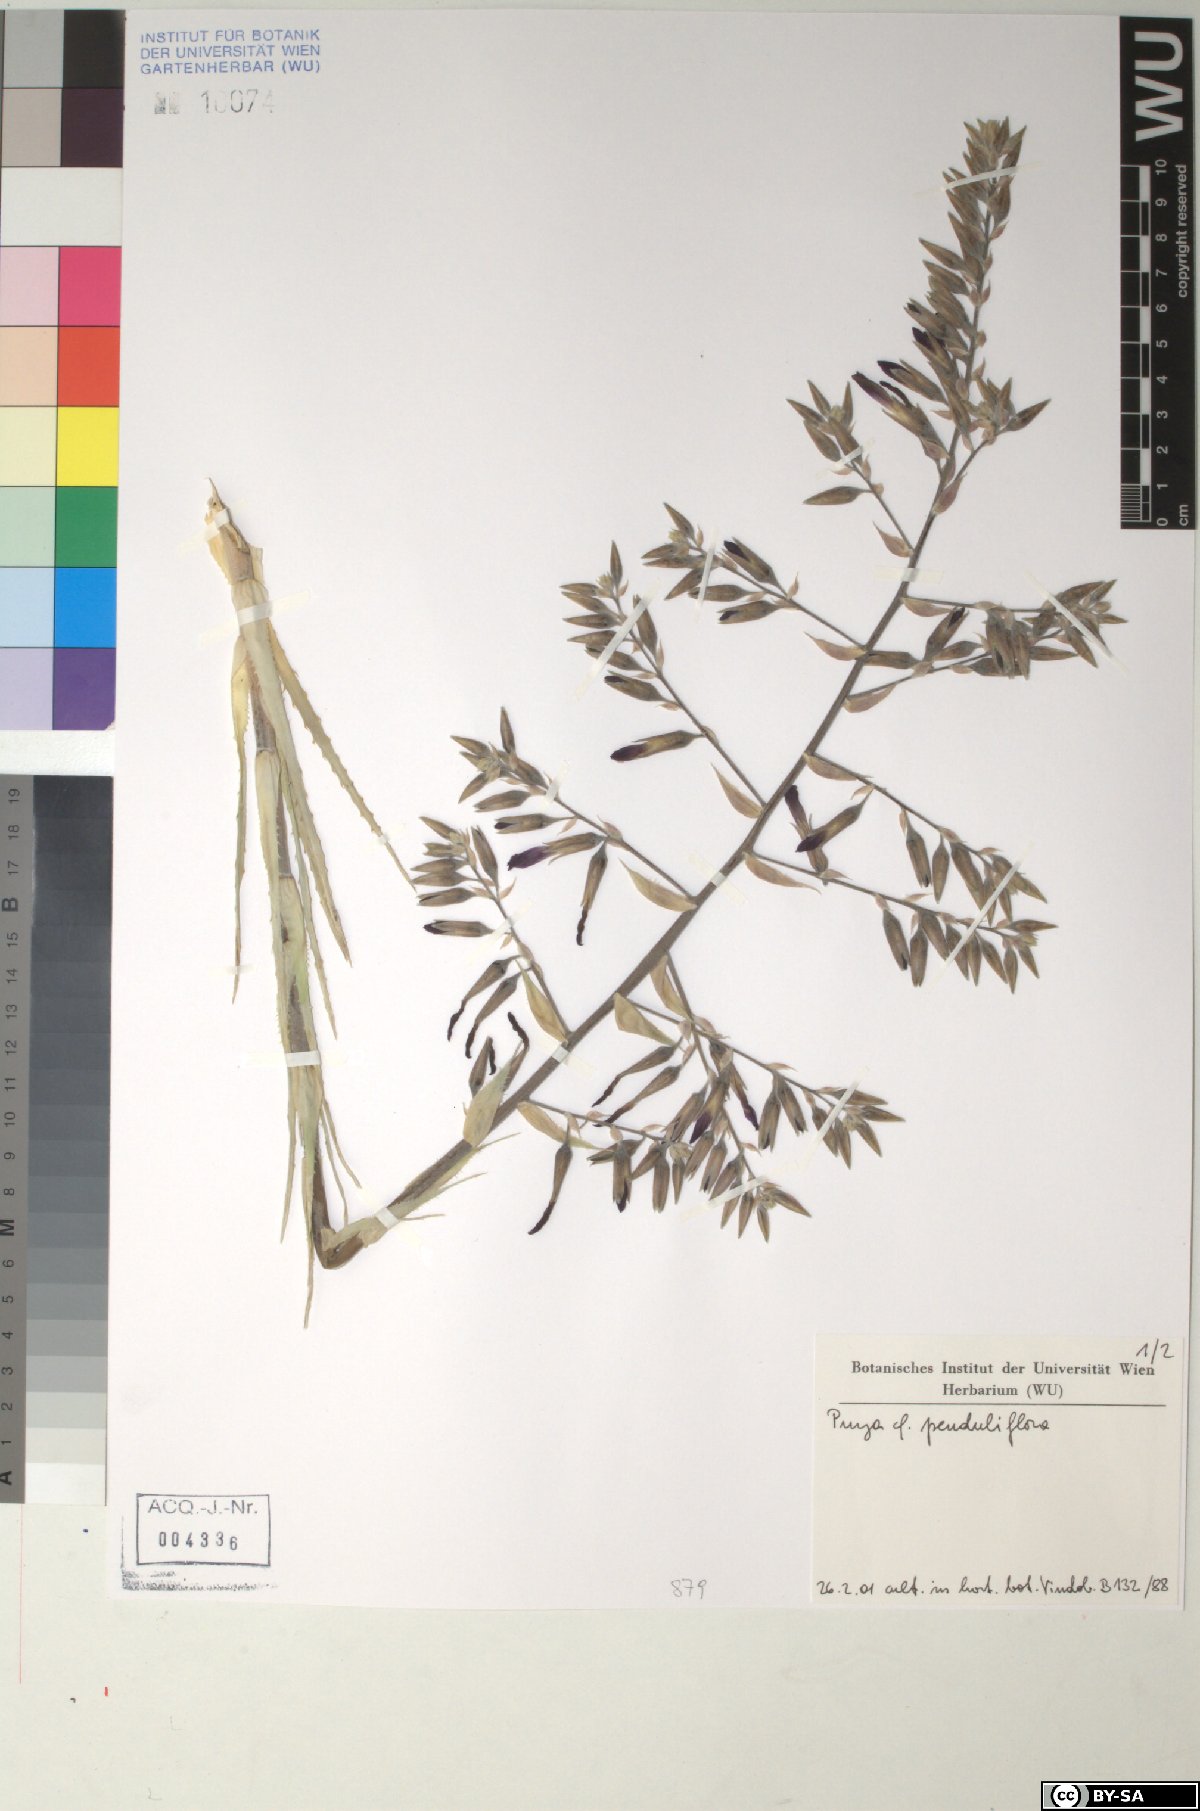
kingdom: Plantae
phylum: Tracheophyta
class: Liliopsida
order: Poales
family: Bromeliaceae
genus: Puya
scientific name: Puya penduliflora
